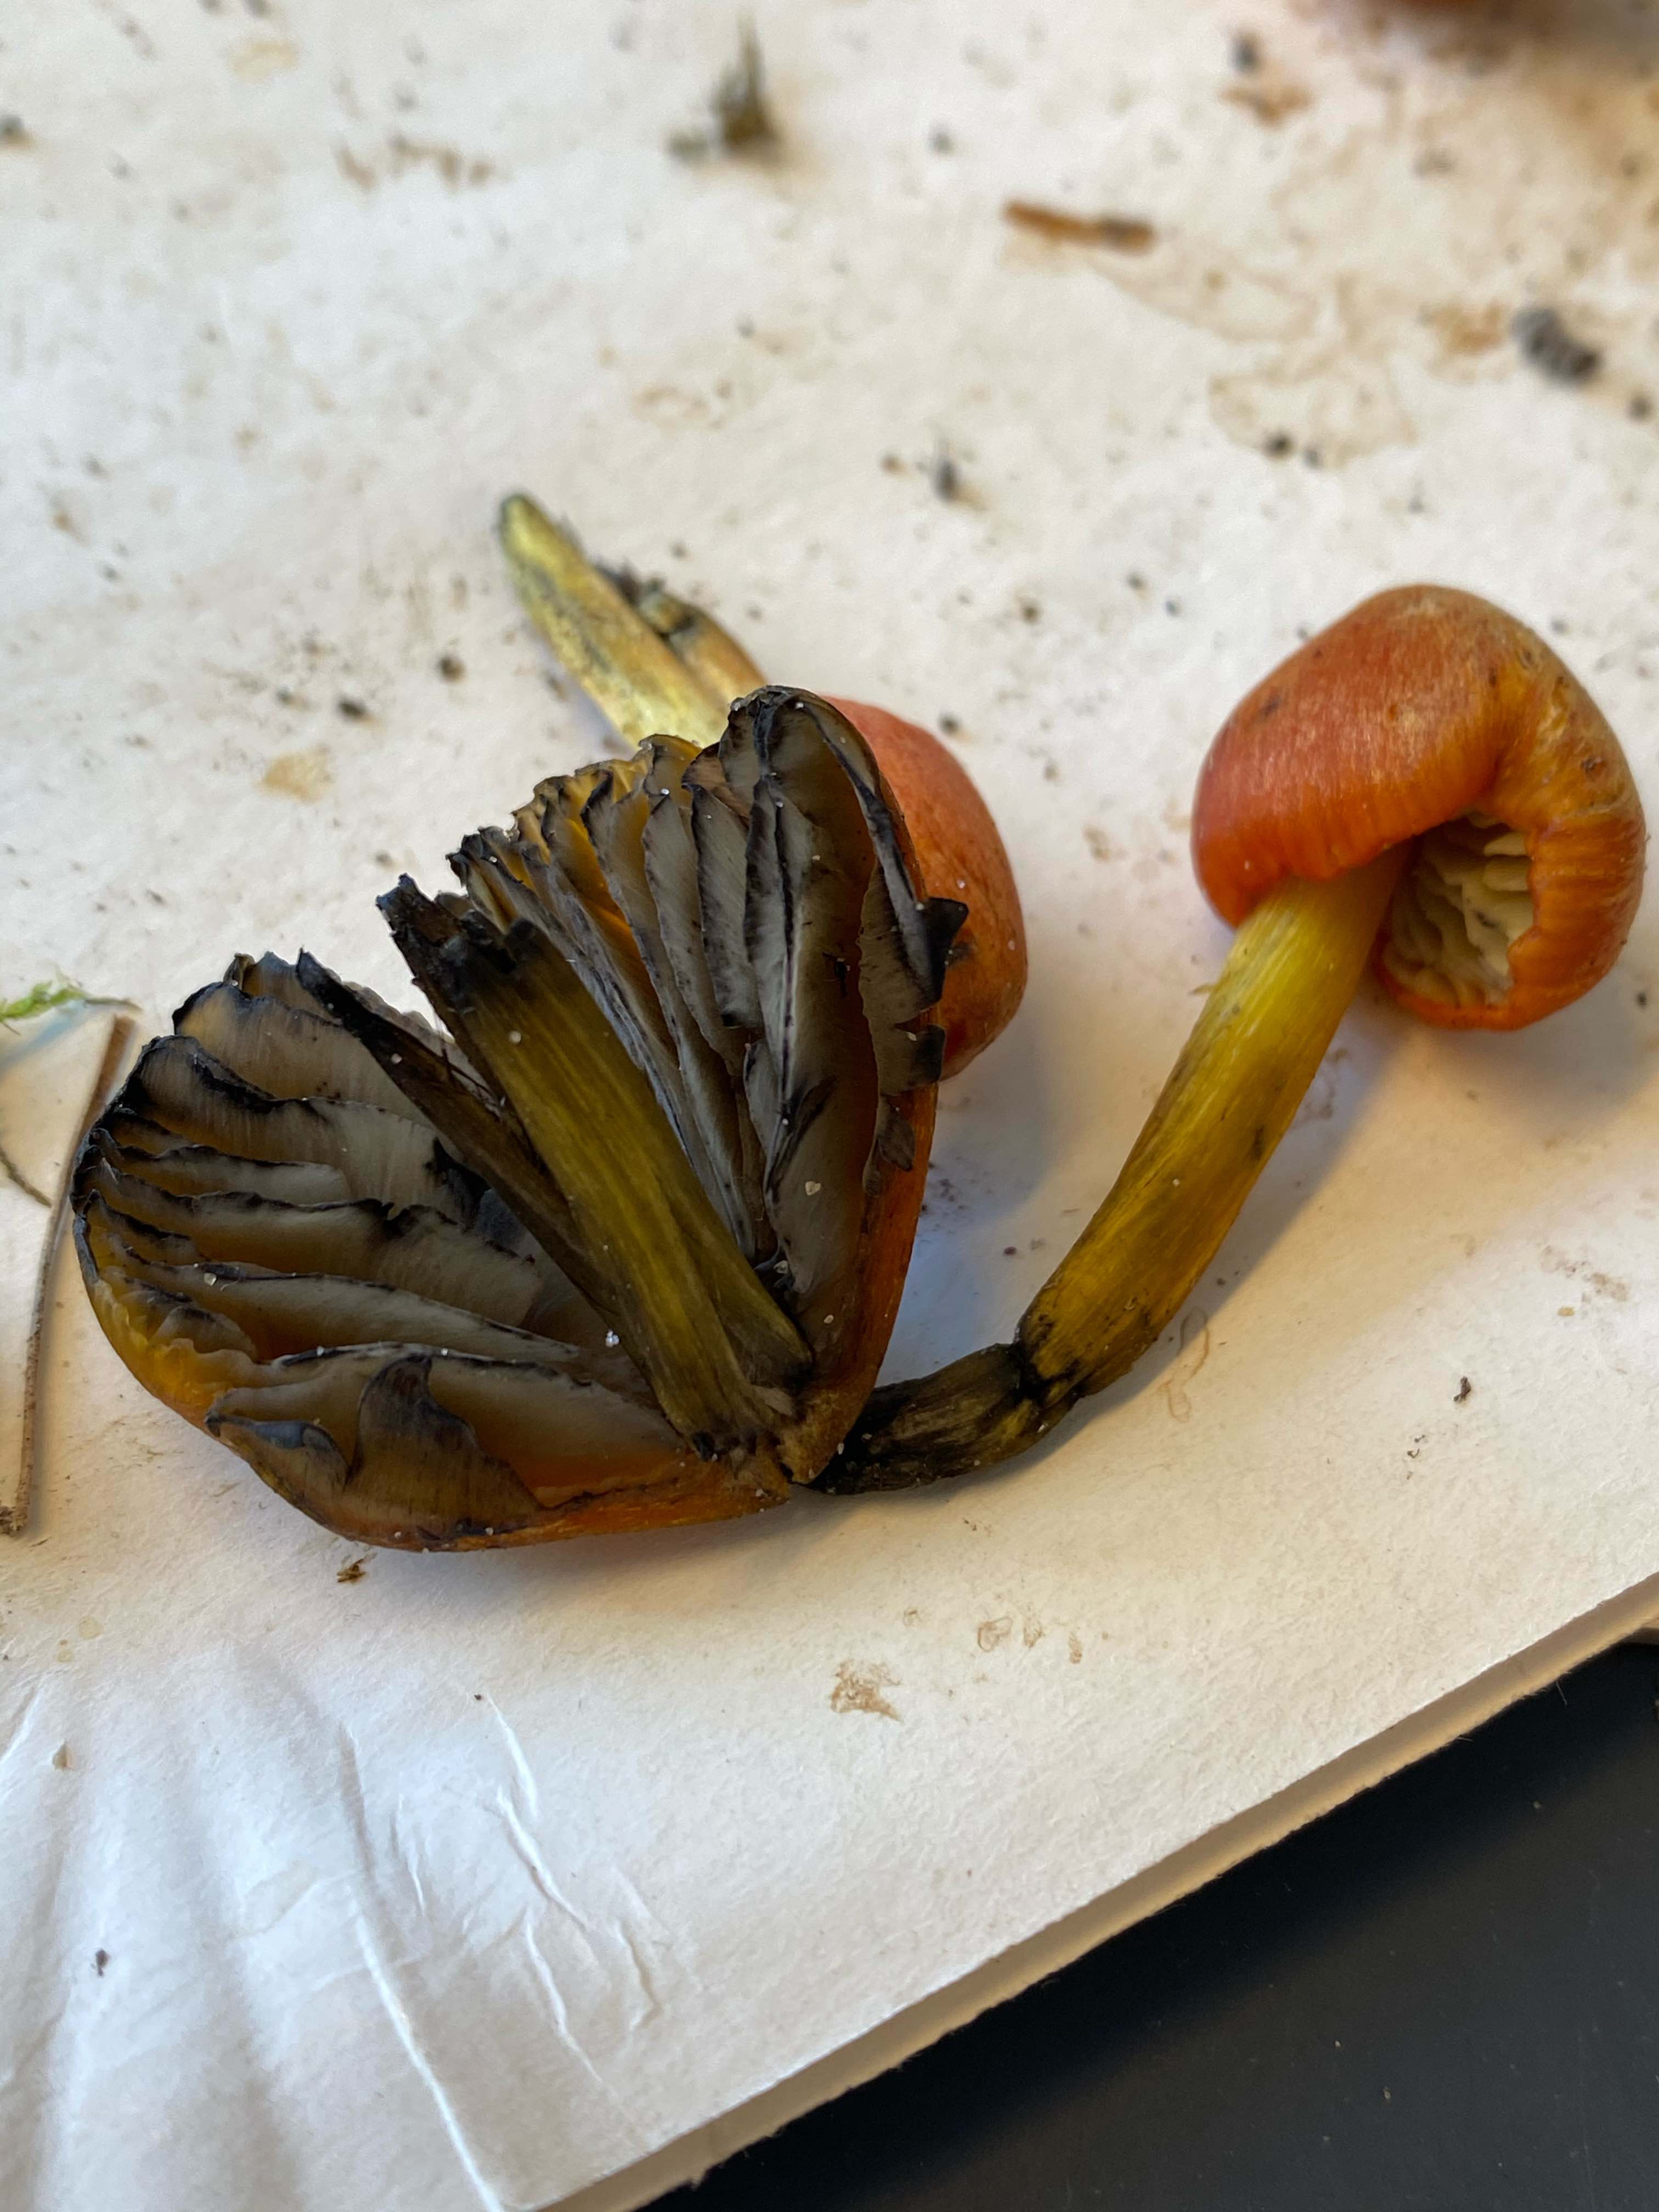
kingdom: Fungi
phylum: Basidiomycota
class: Agaricomycetes
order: Agaricales
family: Hygrophoraceae
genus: Hygrocybe
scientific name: Hygrocybe conica
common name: kegle-vokshat
